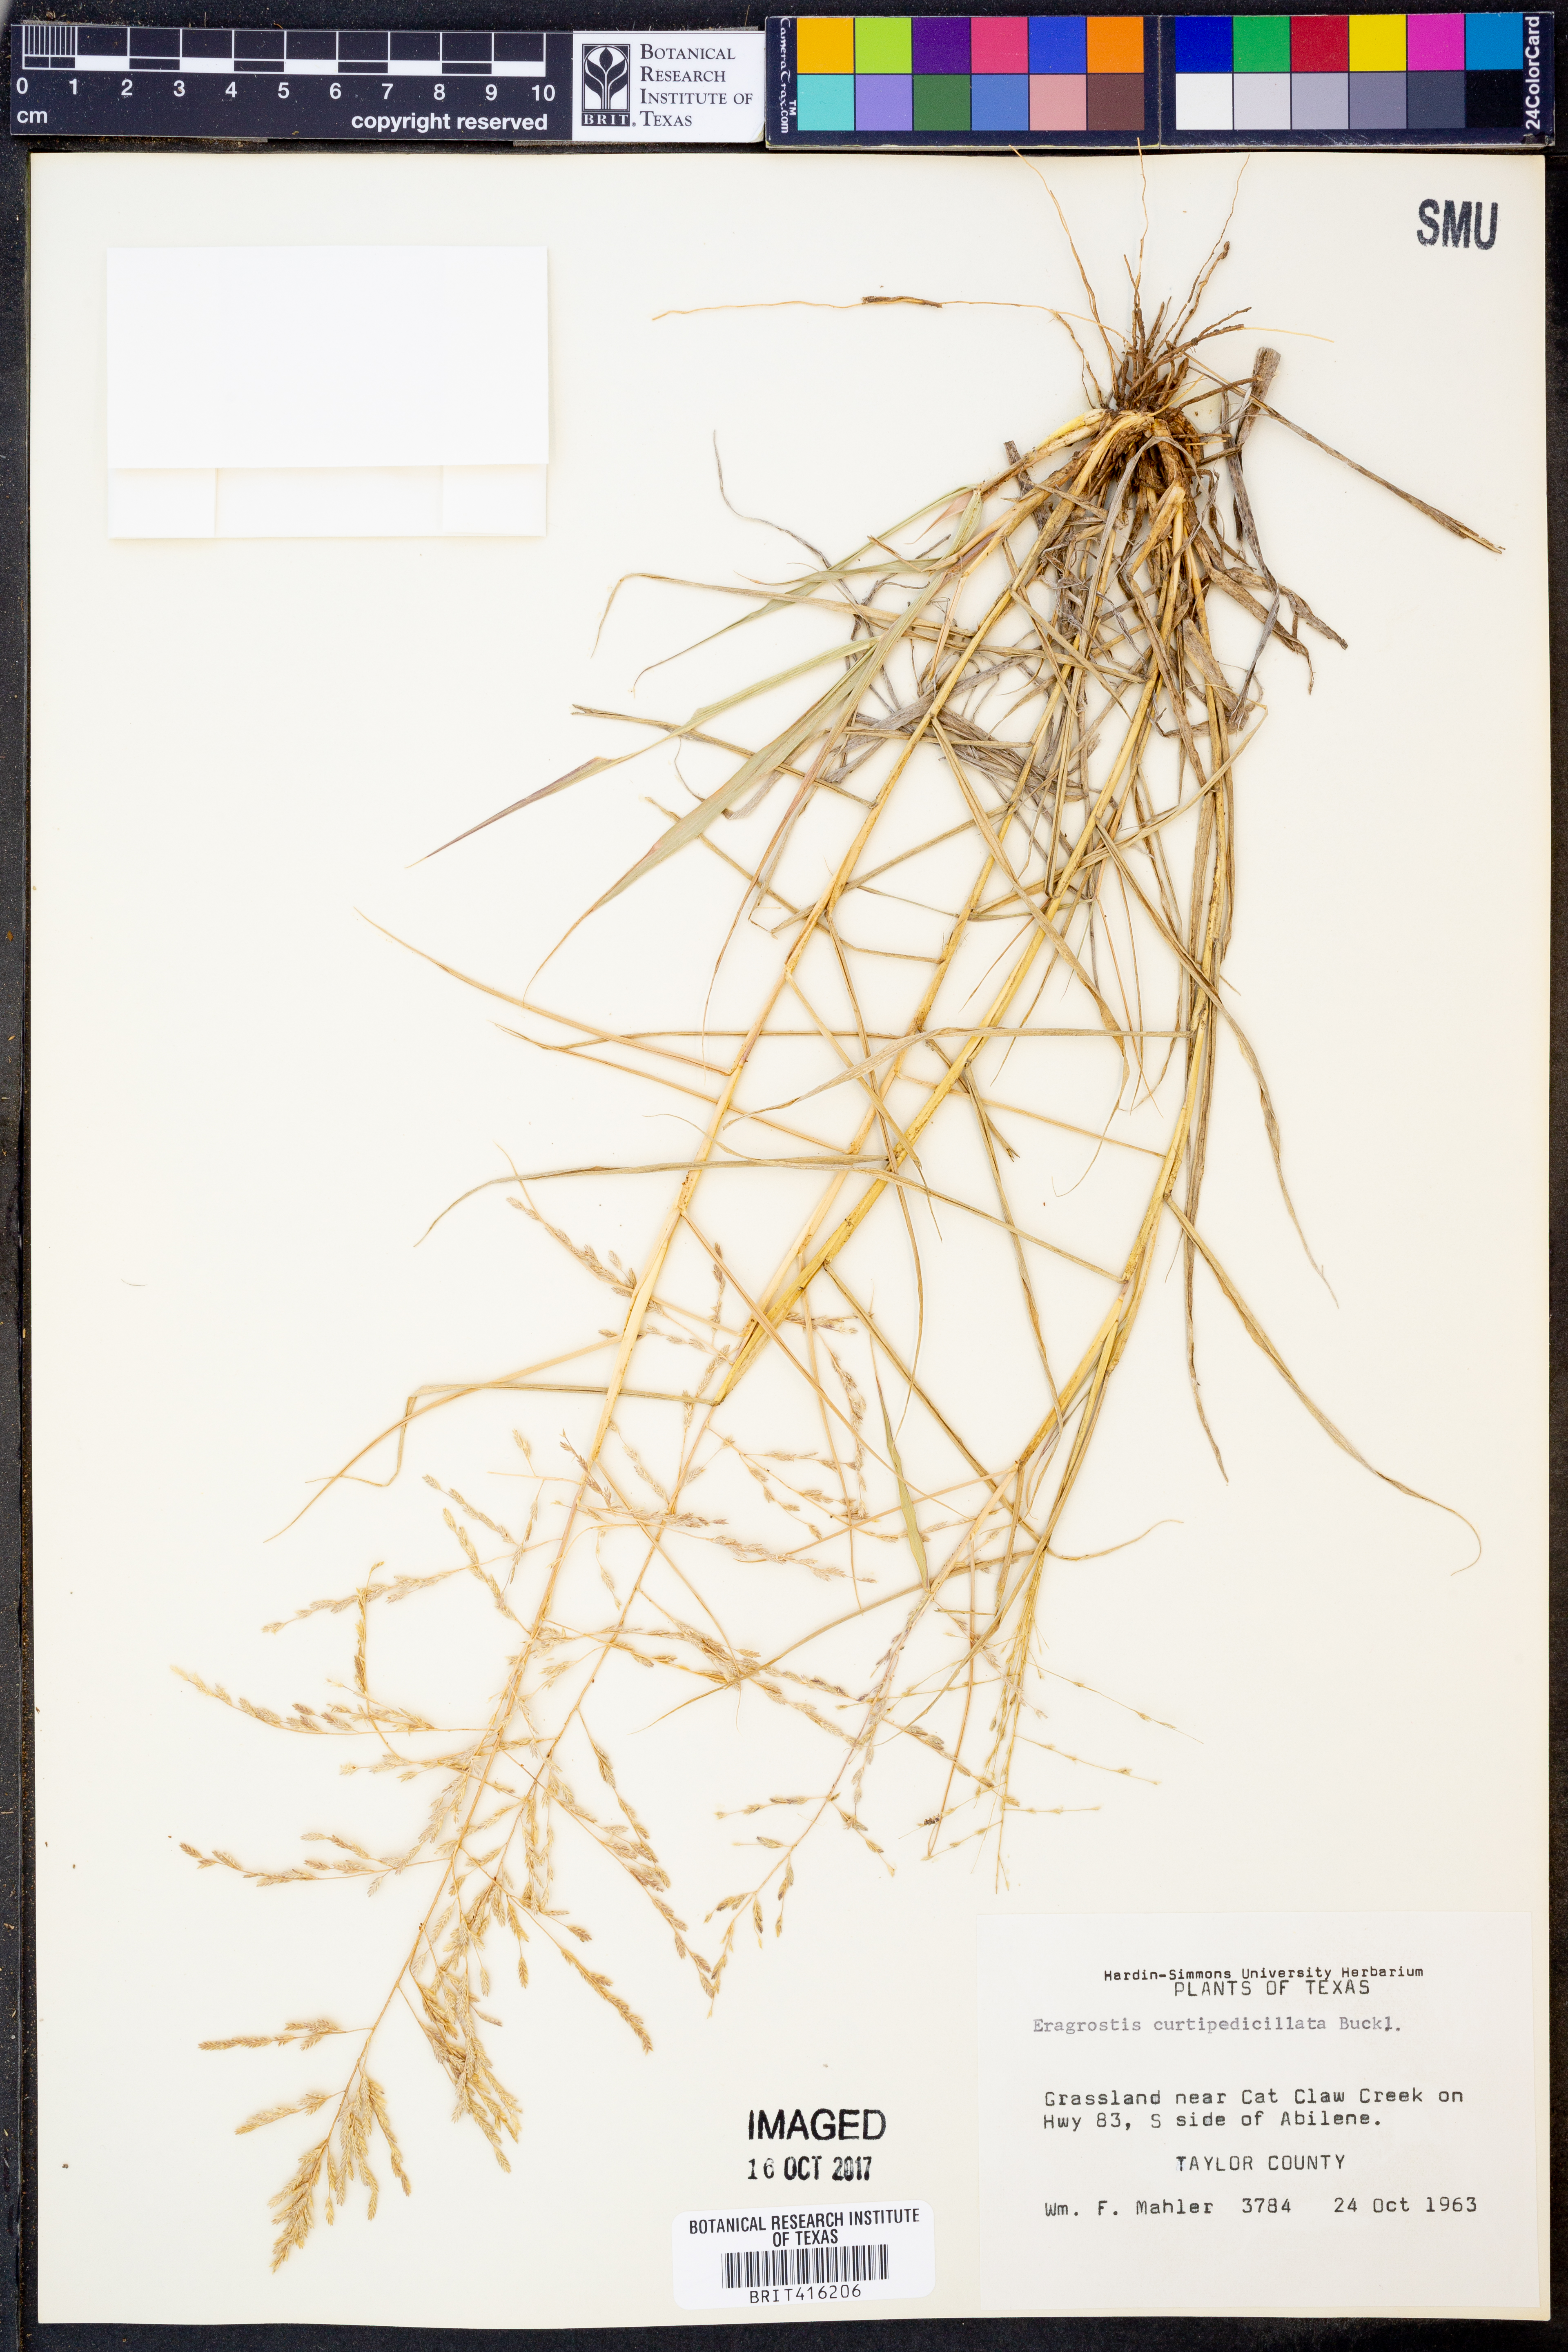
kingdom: Plantae
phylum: Tracheophyta
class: Liliopsida
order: Poales
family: Poaceae
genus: Eragrostis
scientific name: Eragrostis curtipedicellata
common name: Gummy love grass
